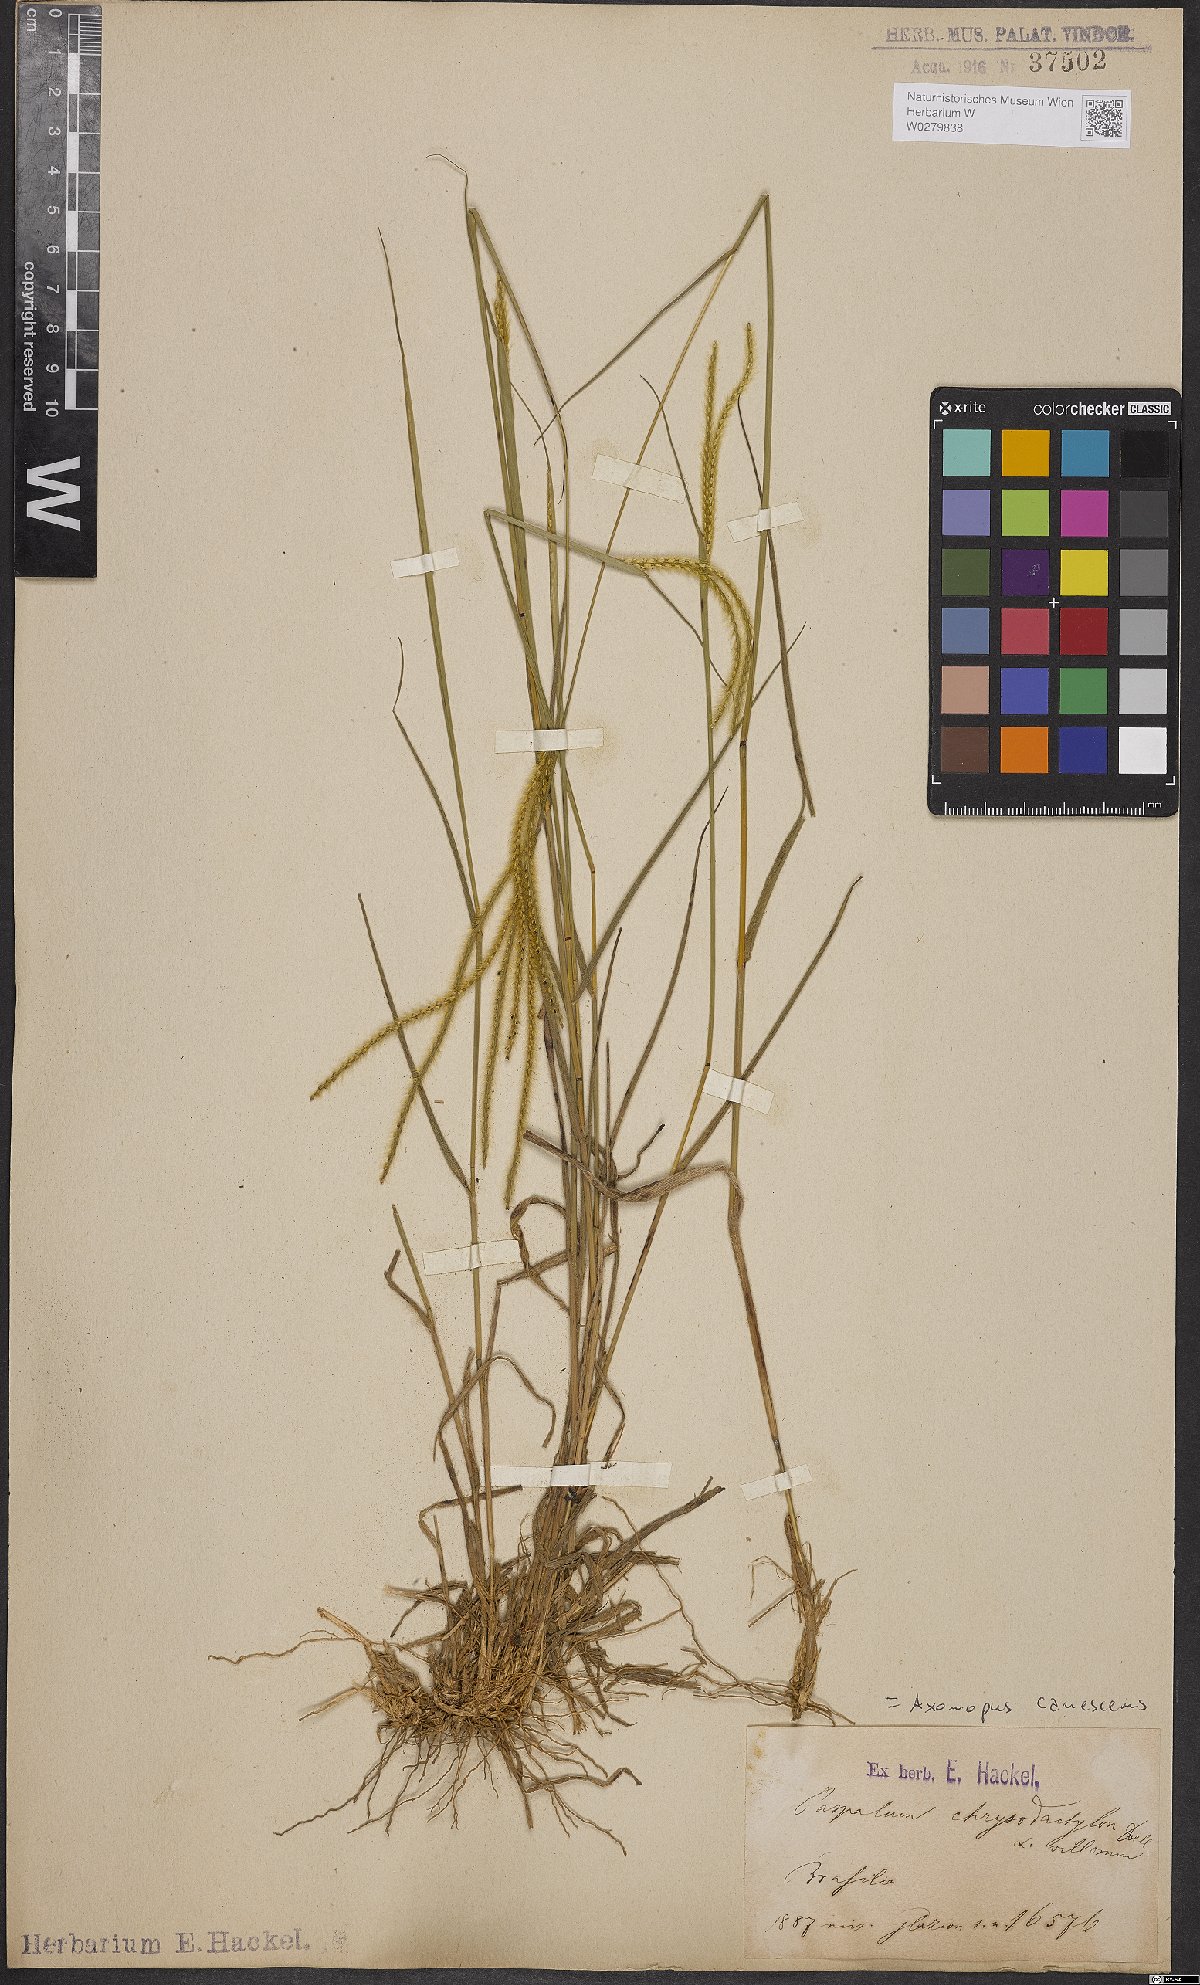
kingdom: Plantae
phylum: Tracheophyta
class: Liliopsida
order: Poales
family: Poaceae
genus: Axonopus
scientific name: Axonopus aureus
